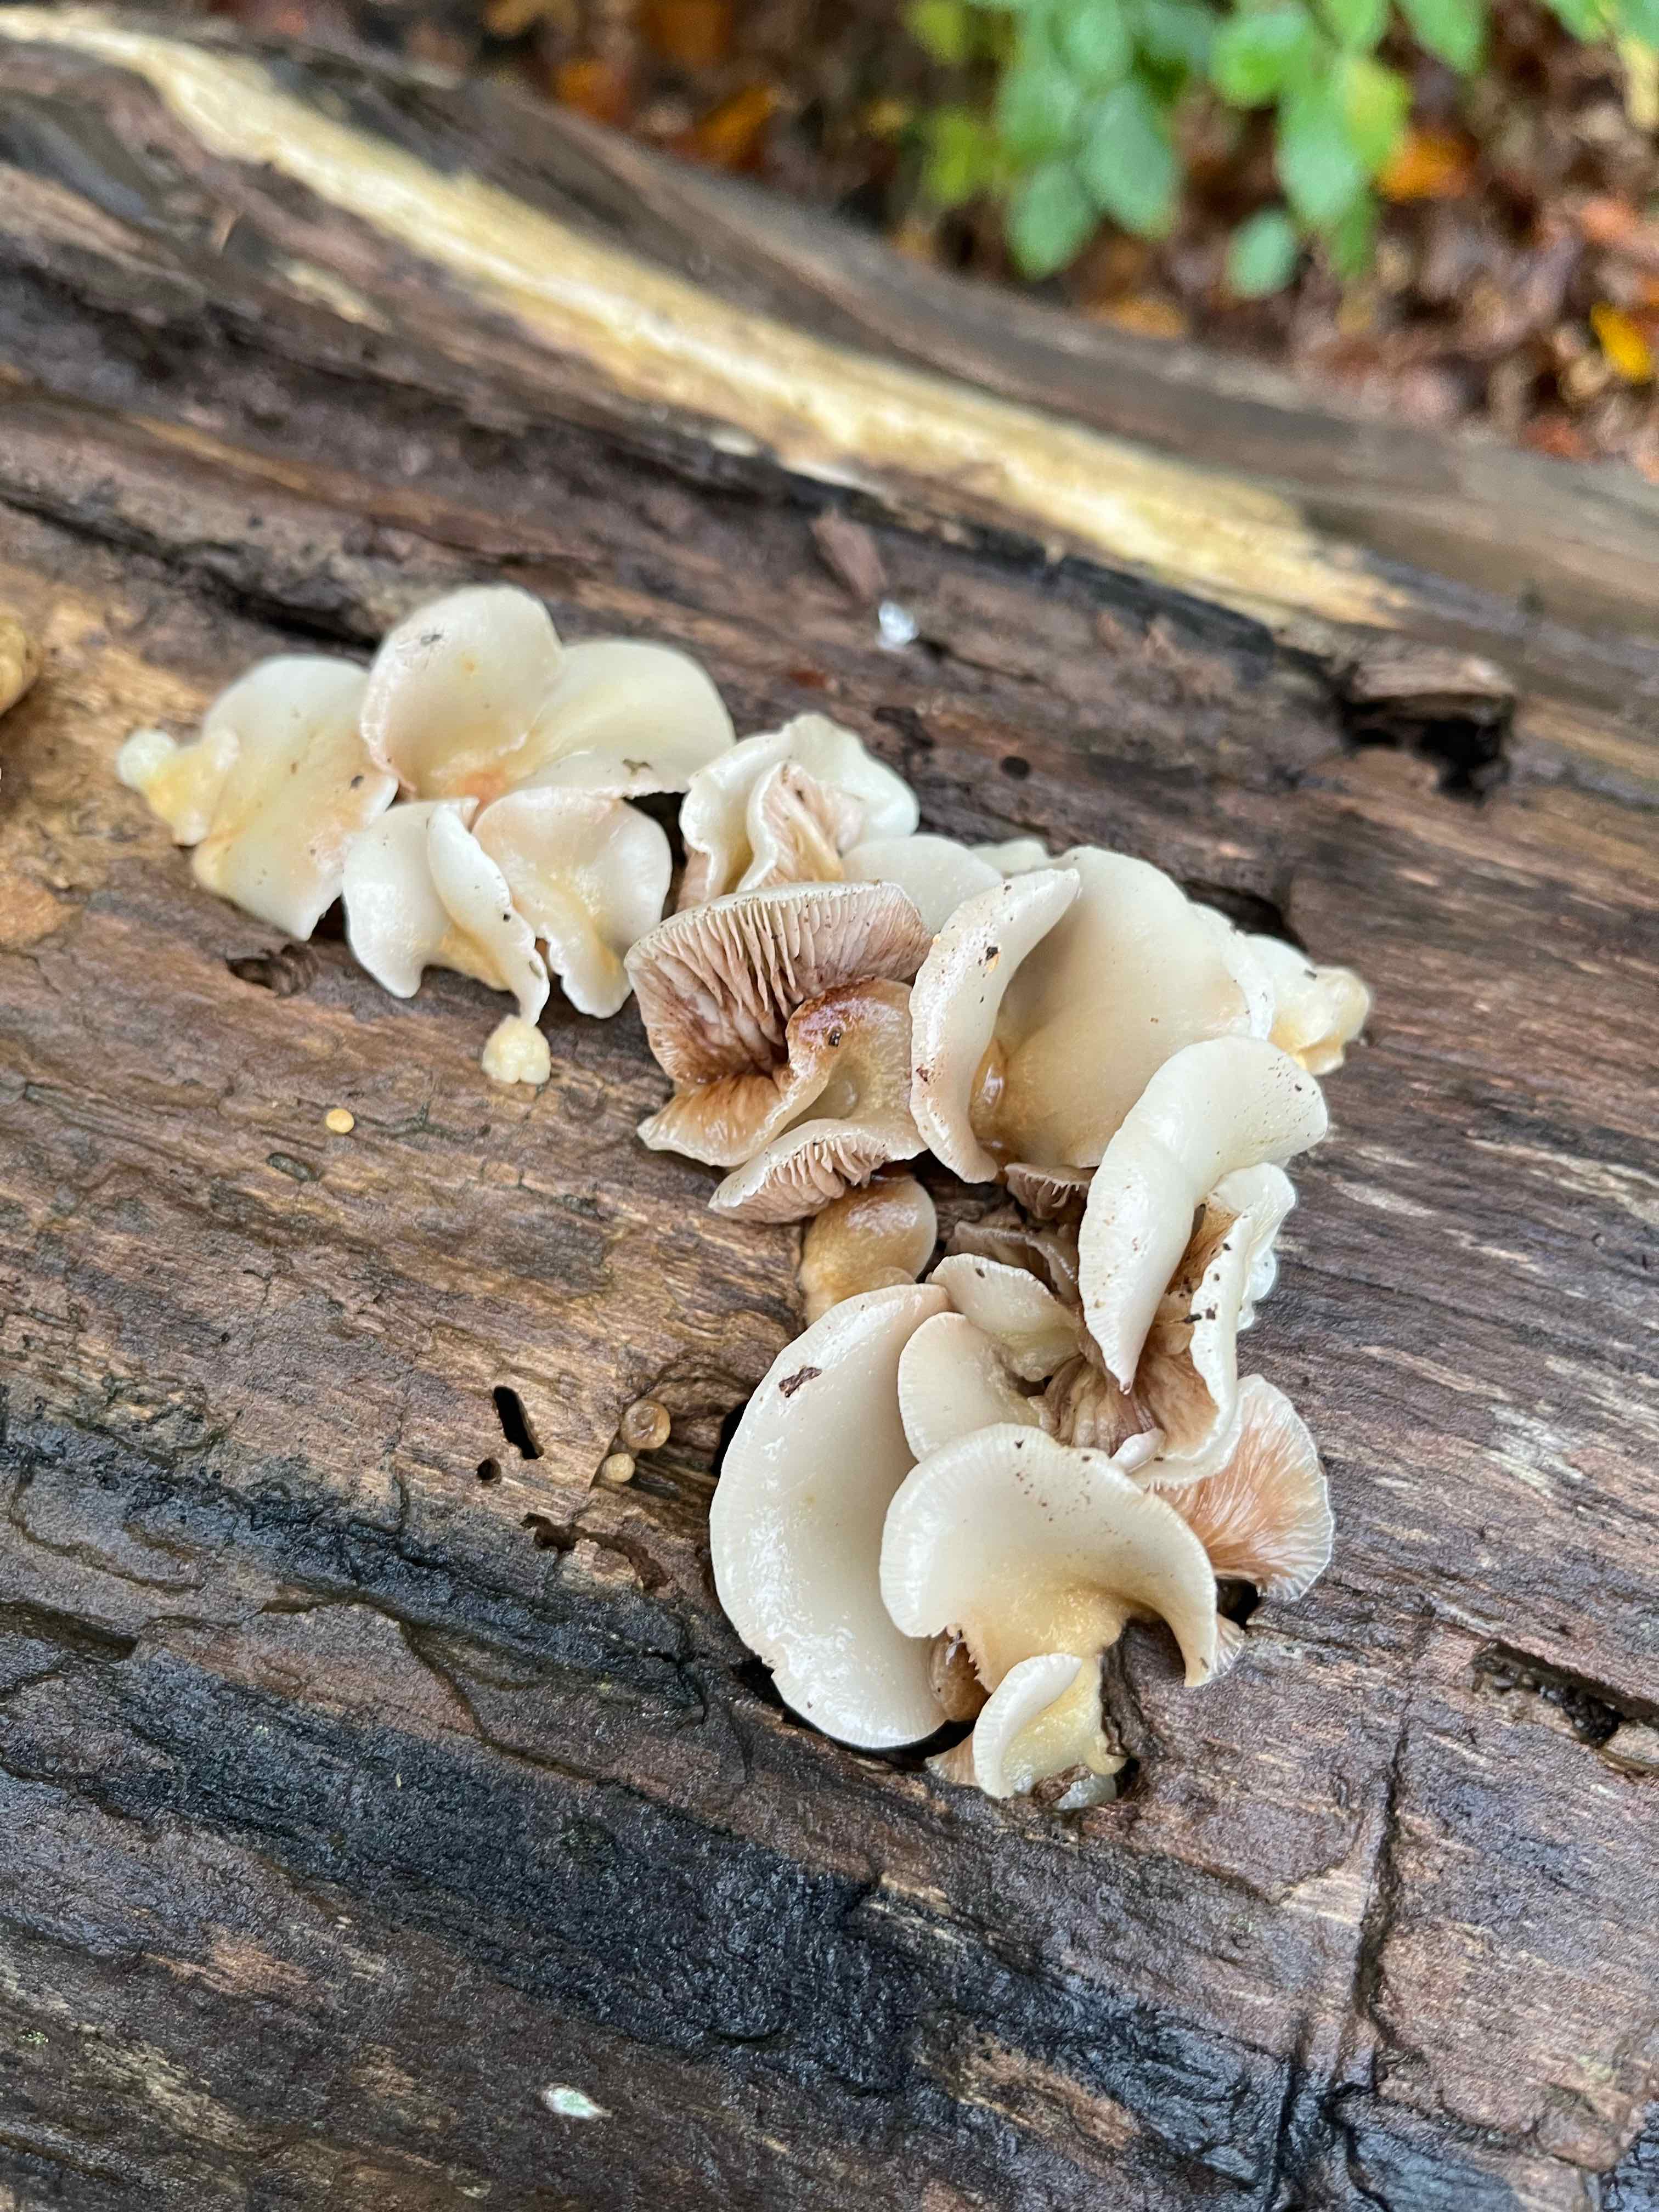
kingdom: Fungi
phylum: Basidiomycota
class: Agaricomycetes
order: Agaricales
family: Crepidotaceae
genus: Crepidotus
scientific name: Crepidotus mollis
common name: blød muslingesvamp
